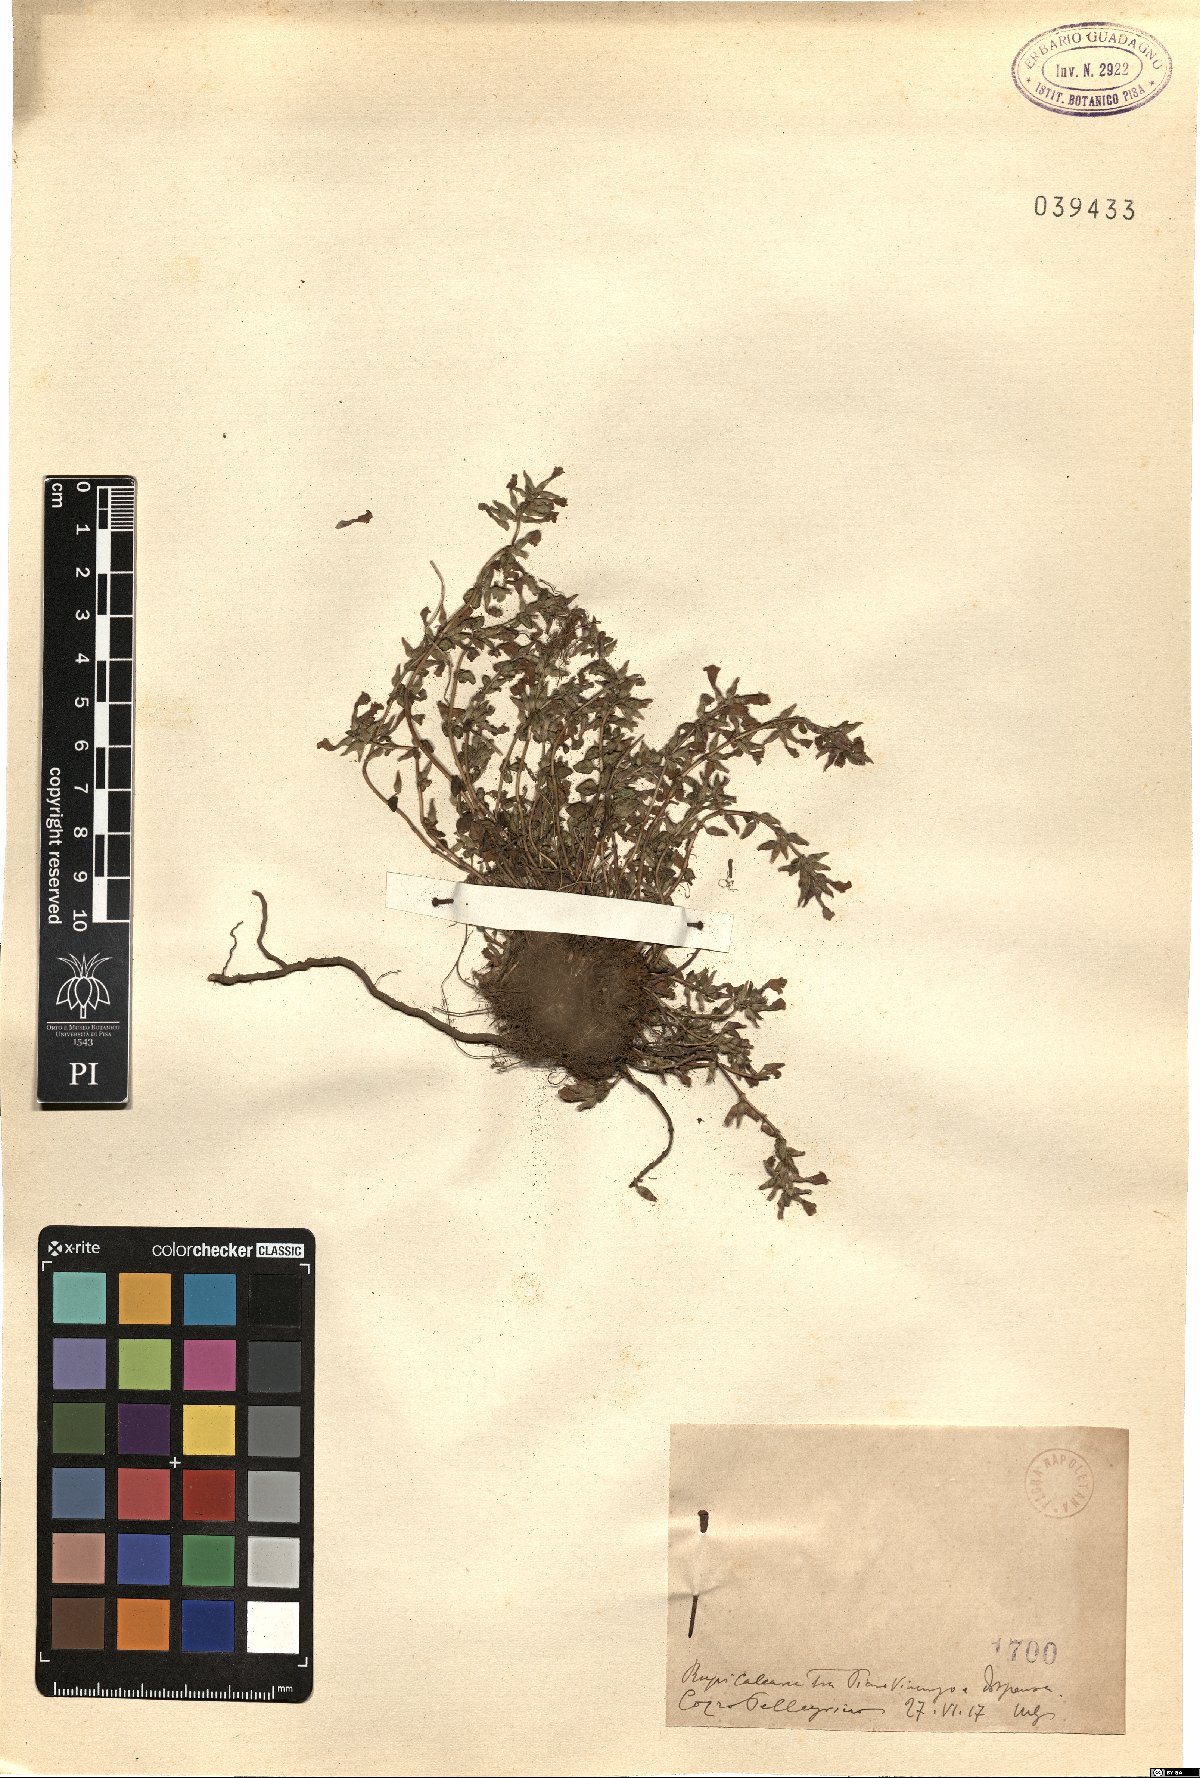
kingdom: Plantae
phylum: Tracheophyta
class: Magnoliopsida
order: Lamiales
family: Lamiaceae
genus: Calamintha
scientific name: Calamintha
